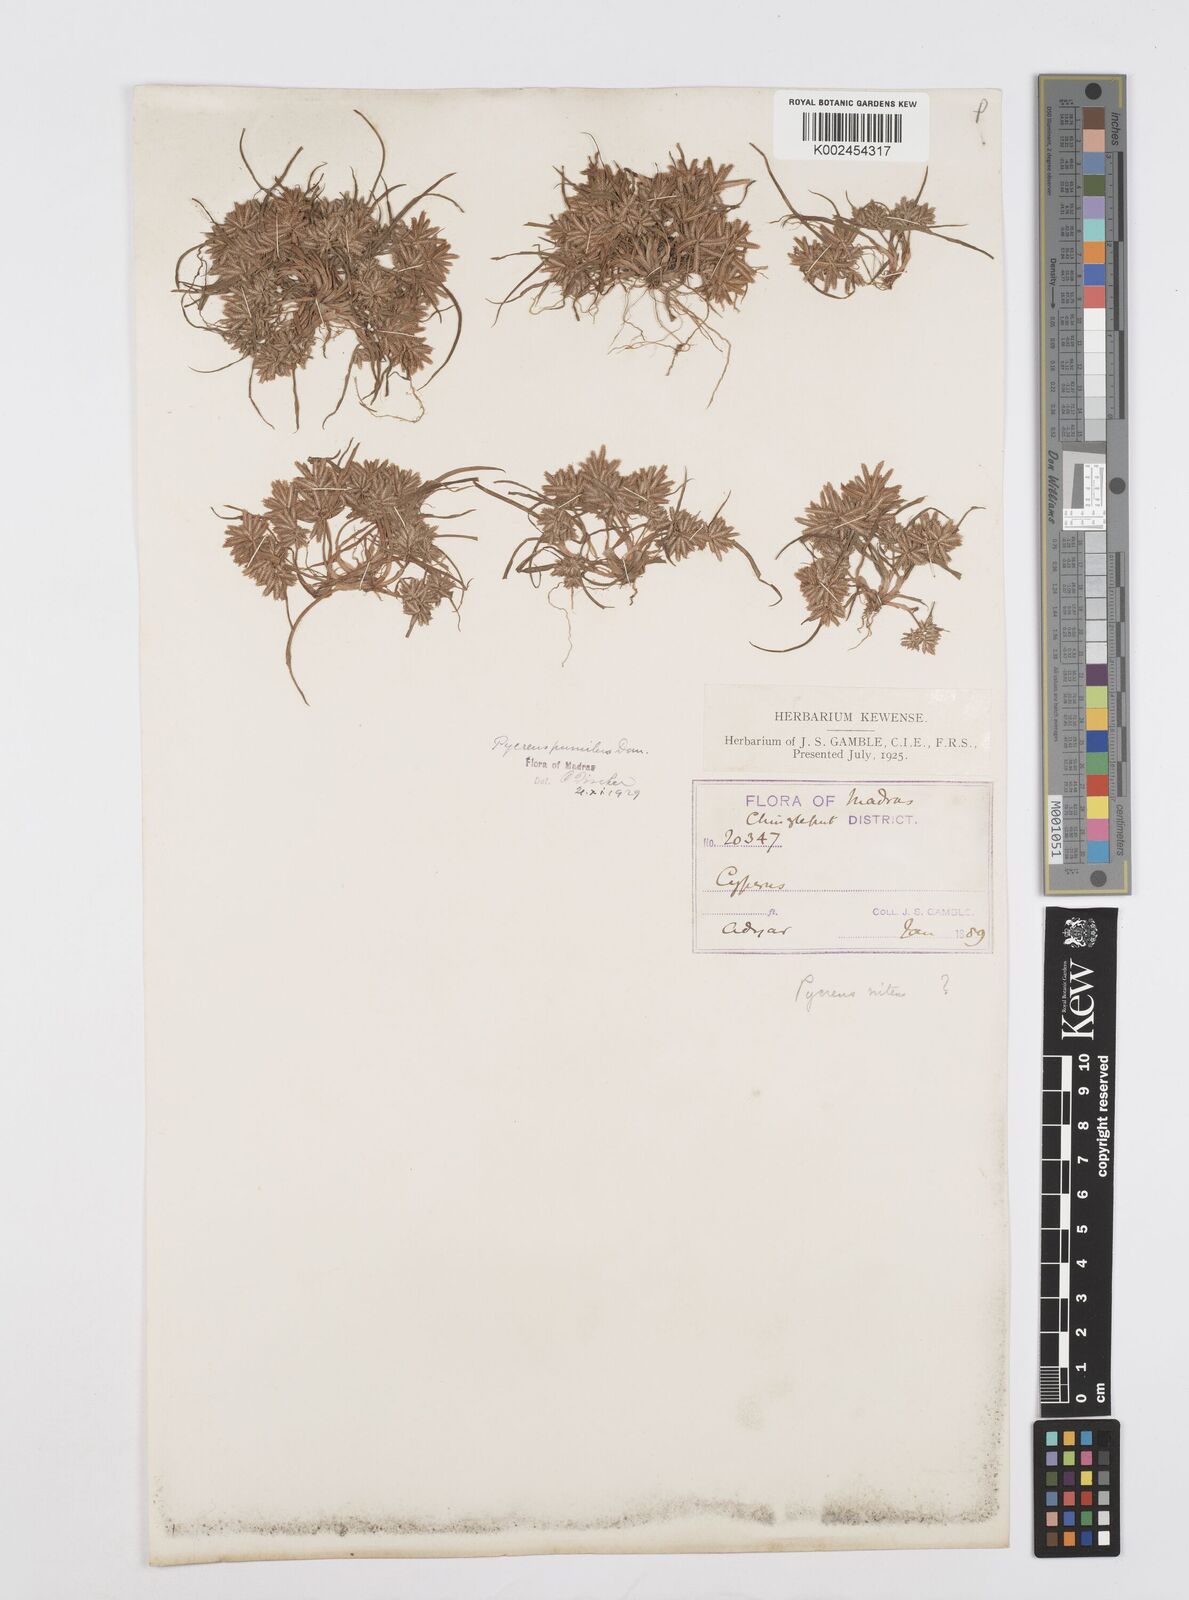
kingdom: Plantae
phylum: Tracheophyta
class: Liliopsida
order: Poales
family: Cyperaceae
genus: Cyperus
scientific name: Cyperus pumilus
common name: Low flatsedge
